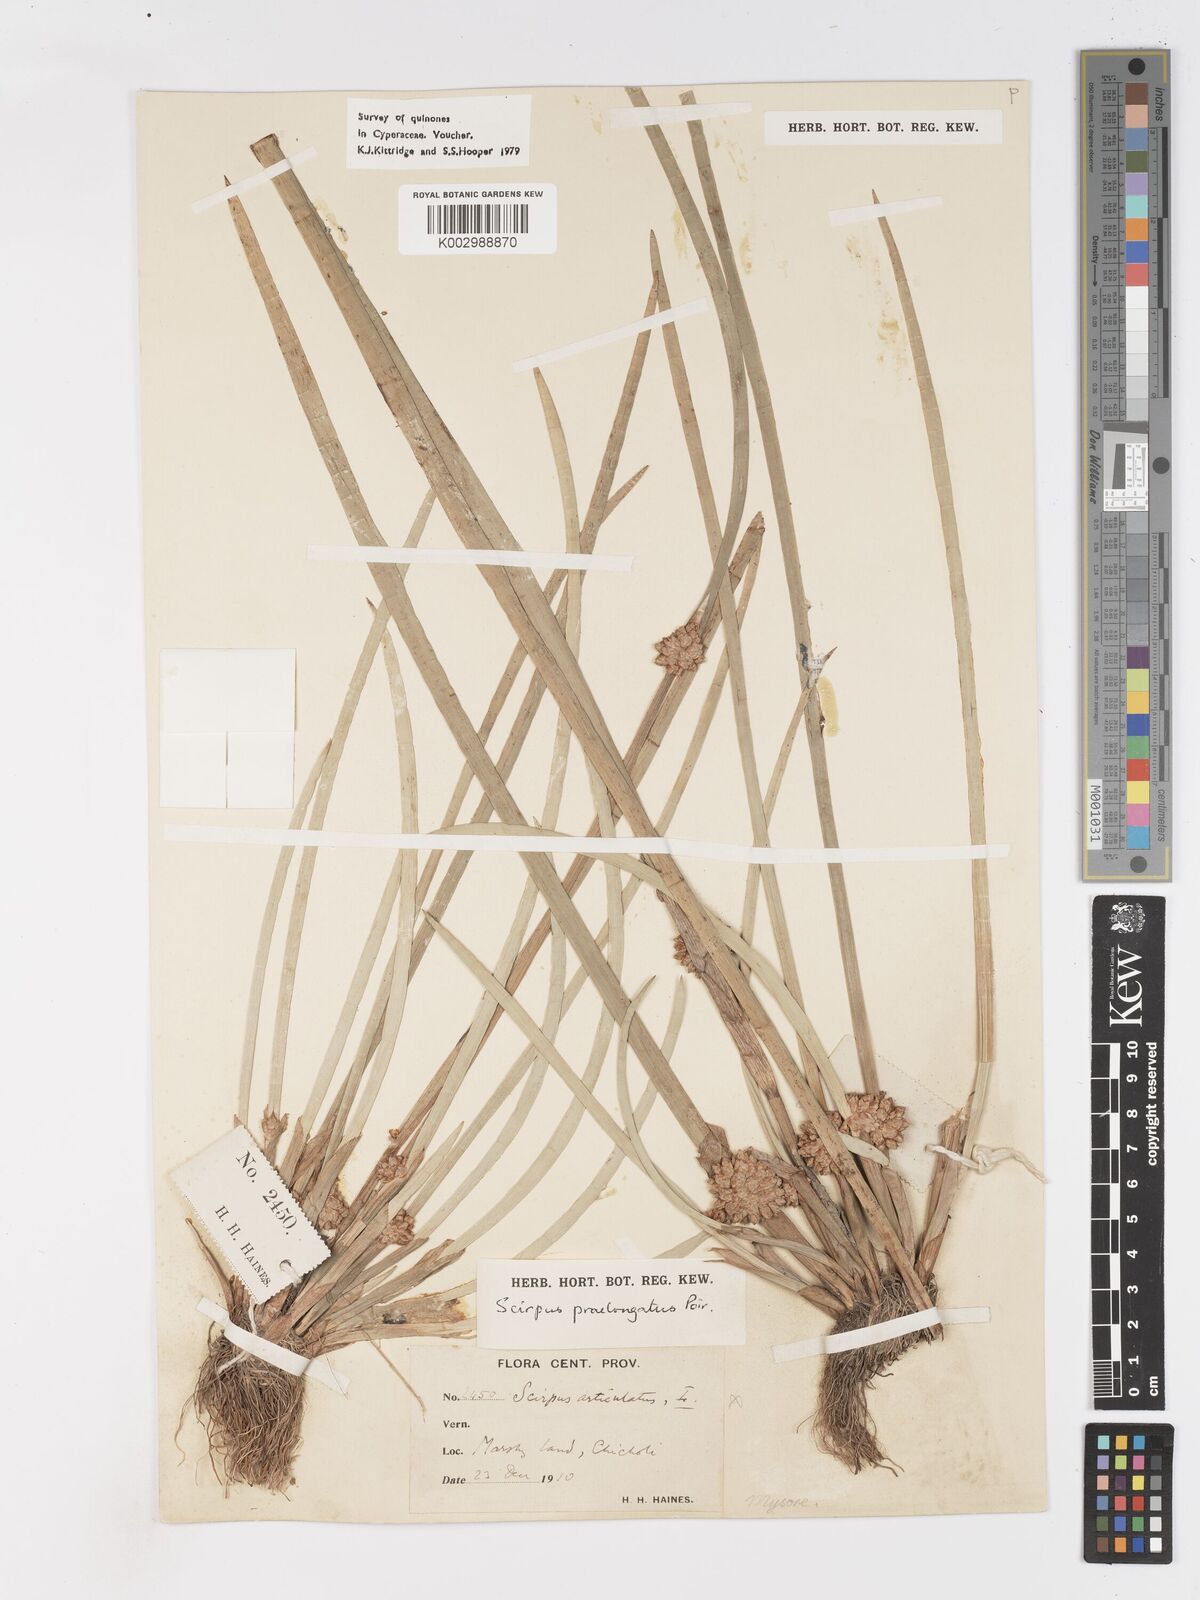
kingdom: Plantae
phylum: Tracheophyta
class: Liliopsida
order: Poales
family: Cyperaceae
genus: Schoenoplectiella
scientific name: Schoenoplectiella praelongata
